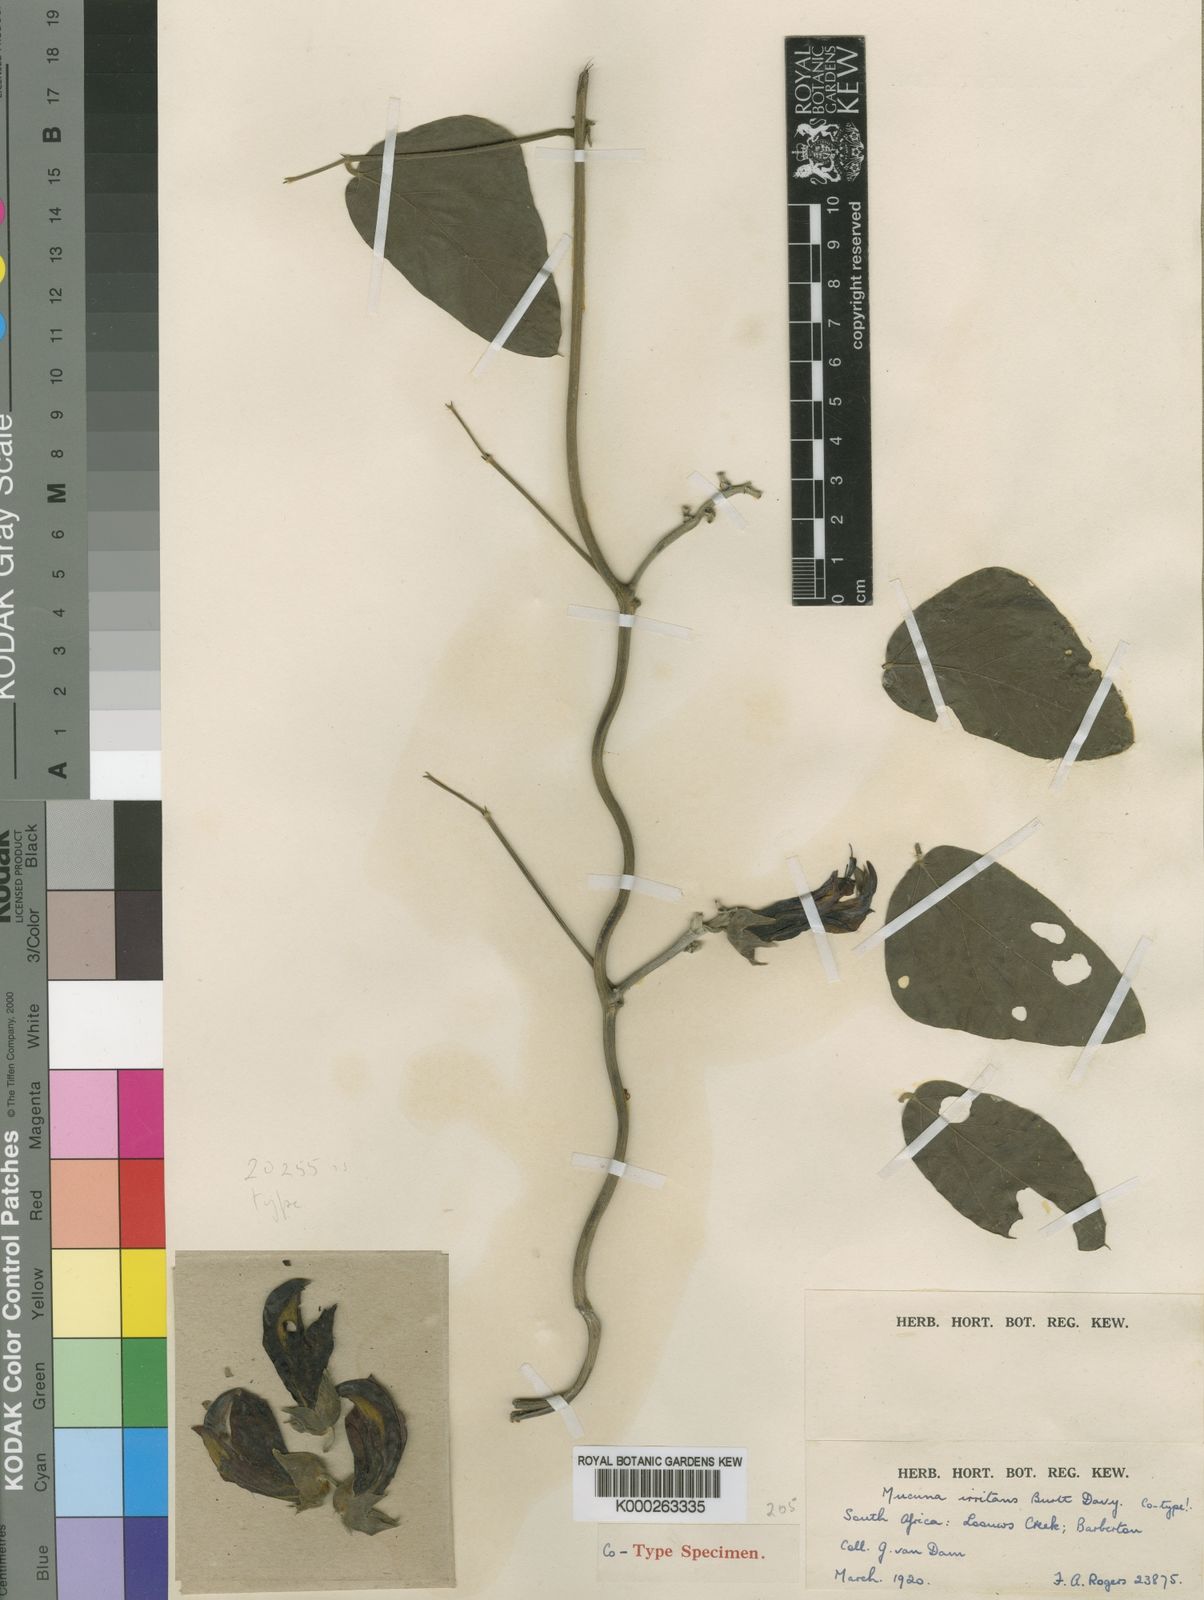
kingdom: Plantae
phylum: Tracheophyta
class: Magnoliopsida
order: Fabales
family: Fabaceae
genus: Mucuna
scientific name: Mucuna coriacea
